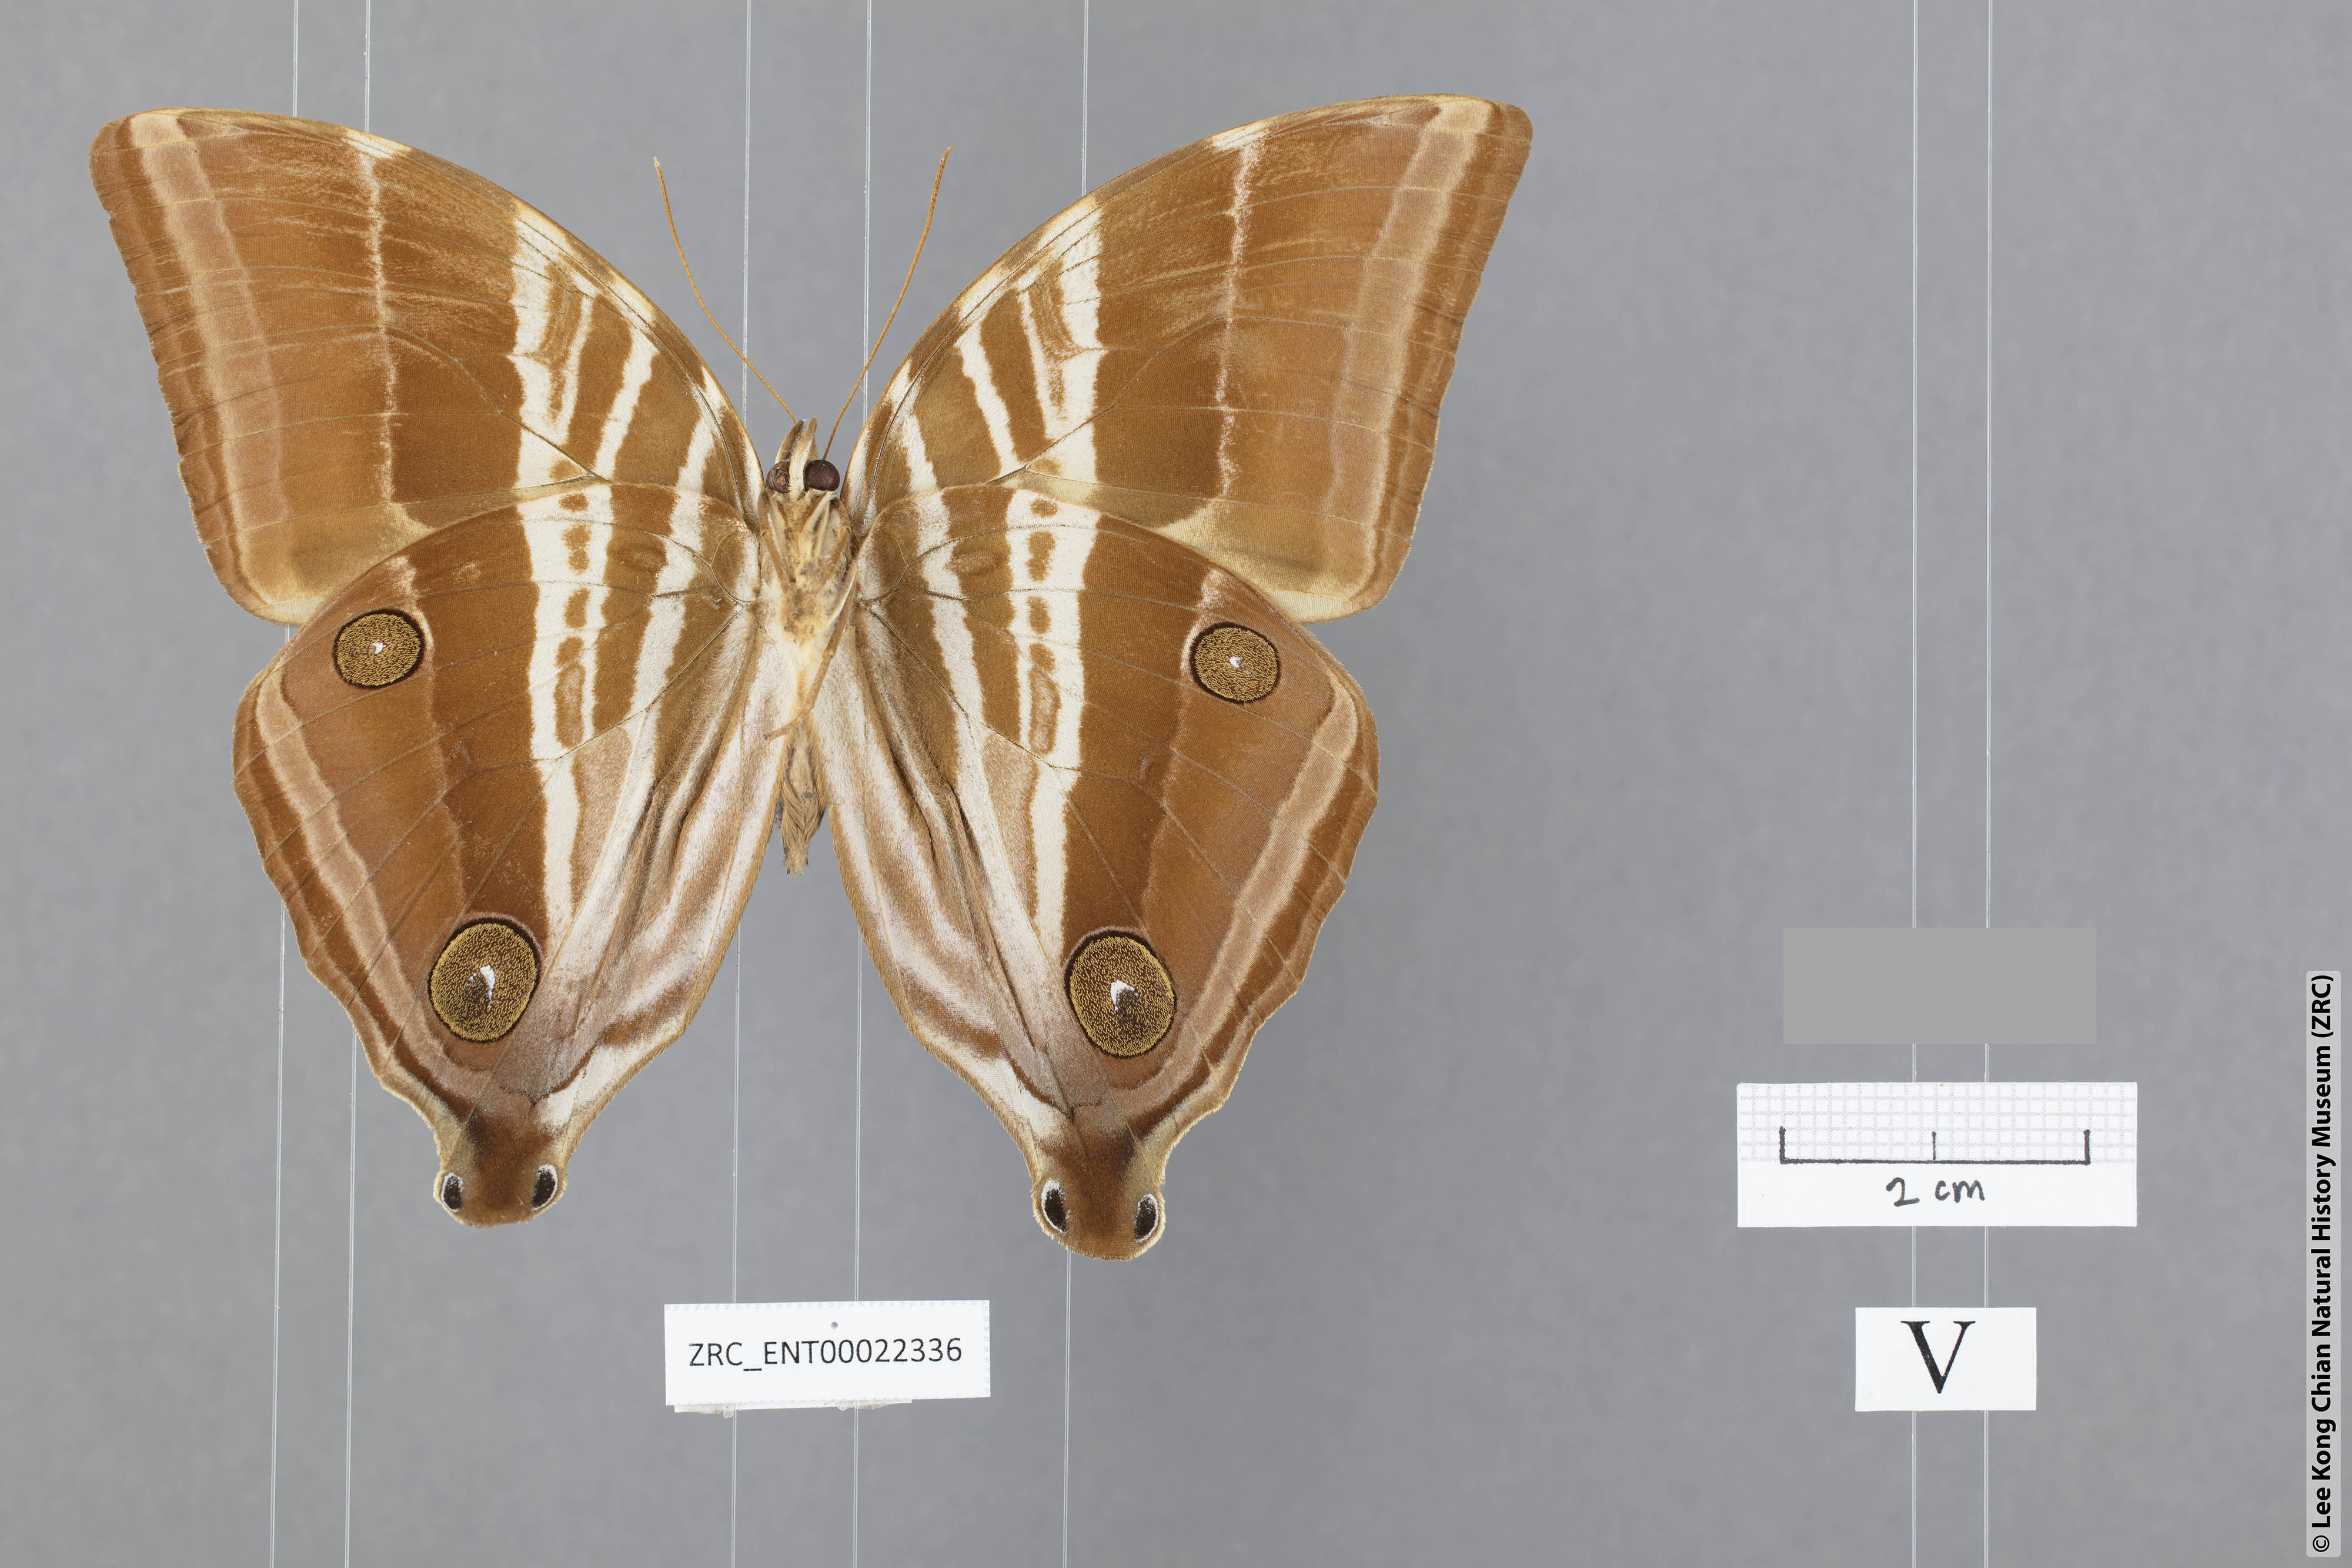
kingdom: Animalia
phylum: Arthropoda
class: Insecta
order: Lepidoptera
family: Nymphalidae
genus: Amathusia
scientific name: Amathusia masina
